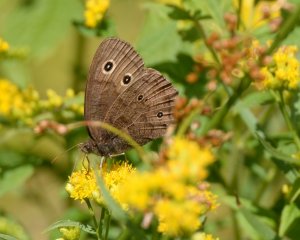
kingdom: Animalia
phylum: Arthropoda
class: Insecta
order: Lepidoptera
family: Nymphalidae
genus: Cercyonis
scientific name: Cercyonis pegala
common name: Common Wood-Nymph
